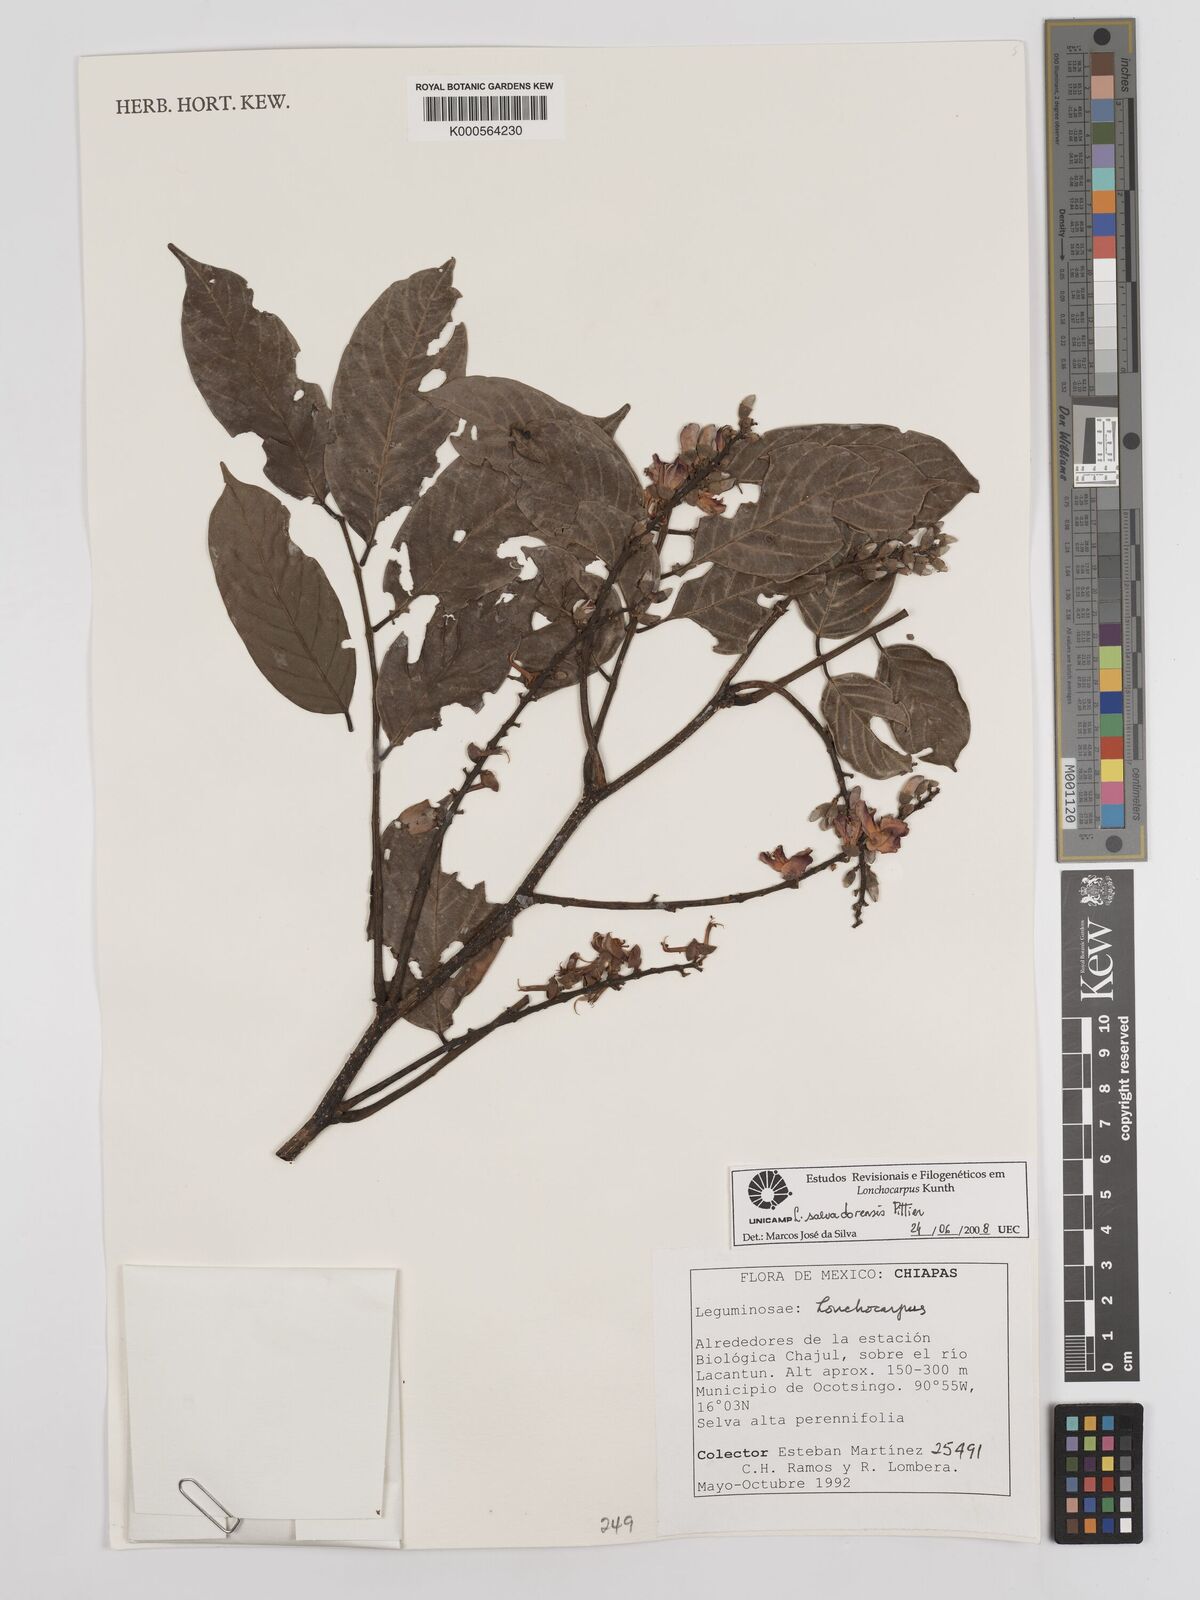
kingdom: Plantae
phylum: Tracheophyta
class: Magnoliopsida
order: Fabales
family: Fabaceae
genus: Lonchocarpus
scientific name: Lonchocarpus salvadorensis
